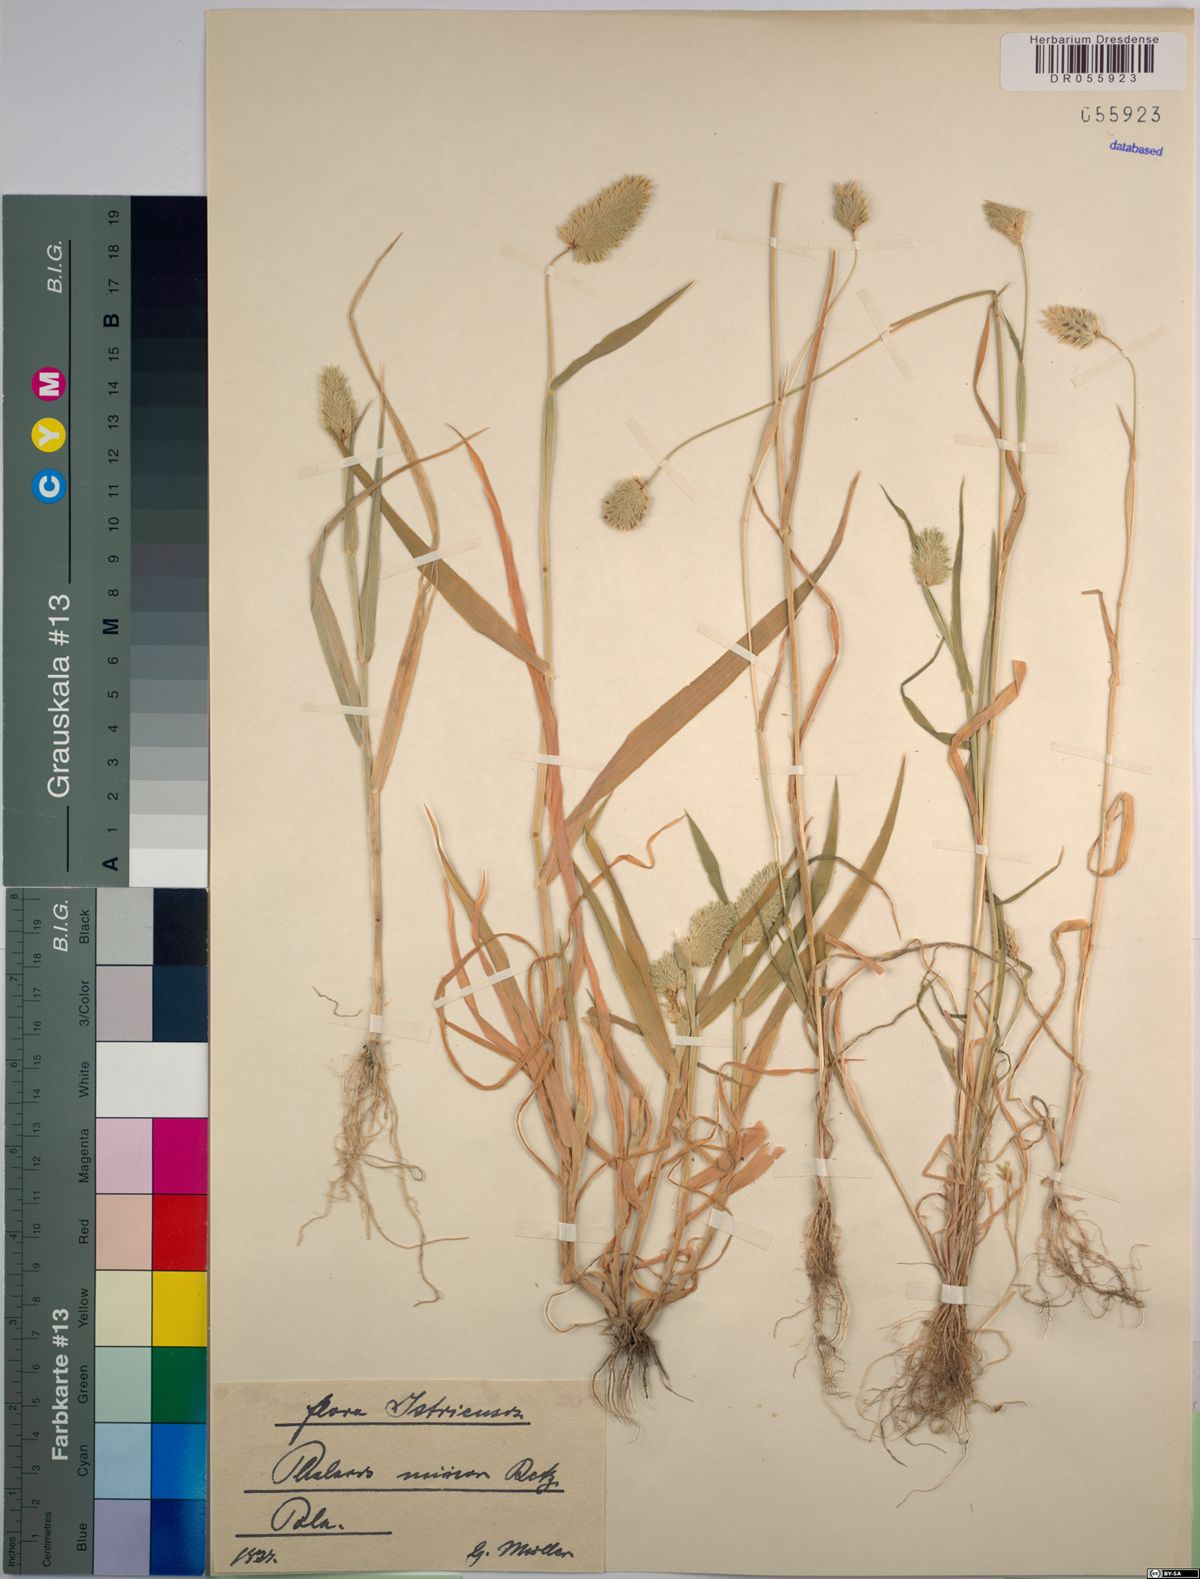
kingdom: Plantae
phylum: Tracheophyta
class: Liliopsida
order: Poales
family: Poaceae
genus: Phalaris
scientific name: Phalaris minor
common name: Littleseed canarygrass
